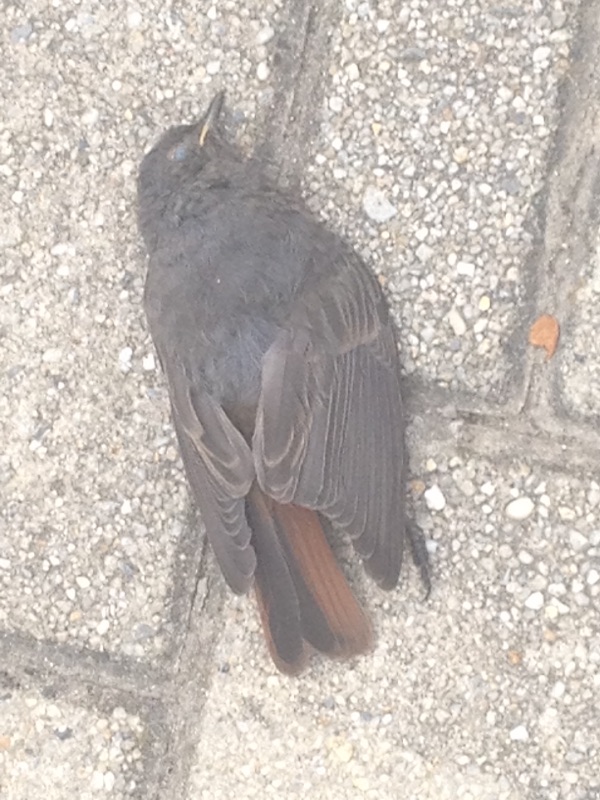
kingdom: Animalia
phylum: Chordata
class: Aves
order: Passeriformes
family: Muscicapidae
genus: Phoenicurus
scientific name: Phoenicurus ochruros
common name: Black redstart
